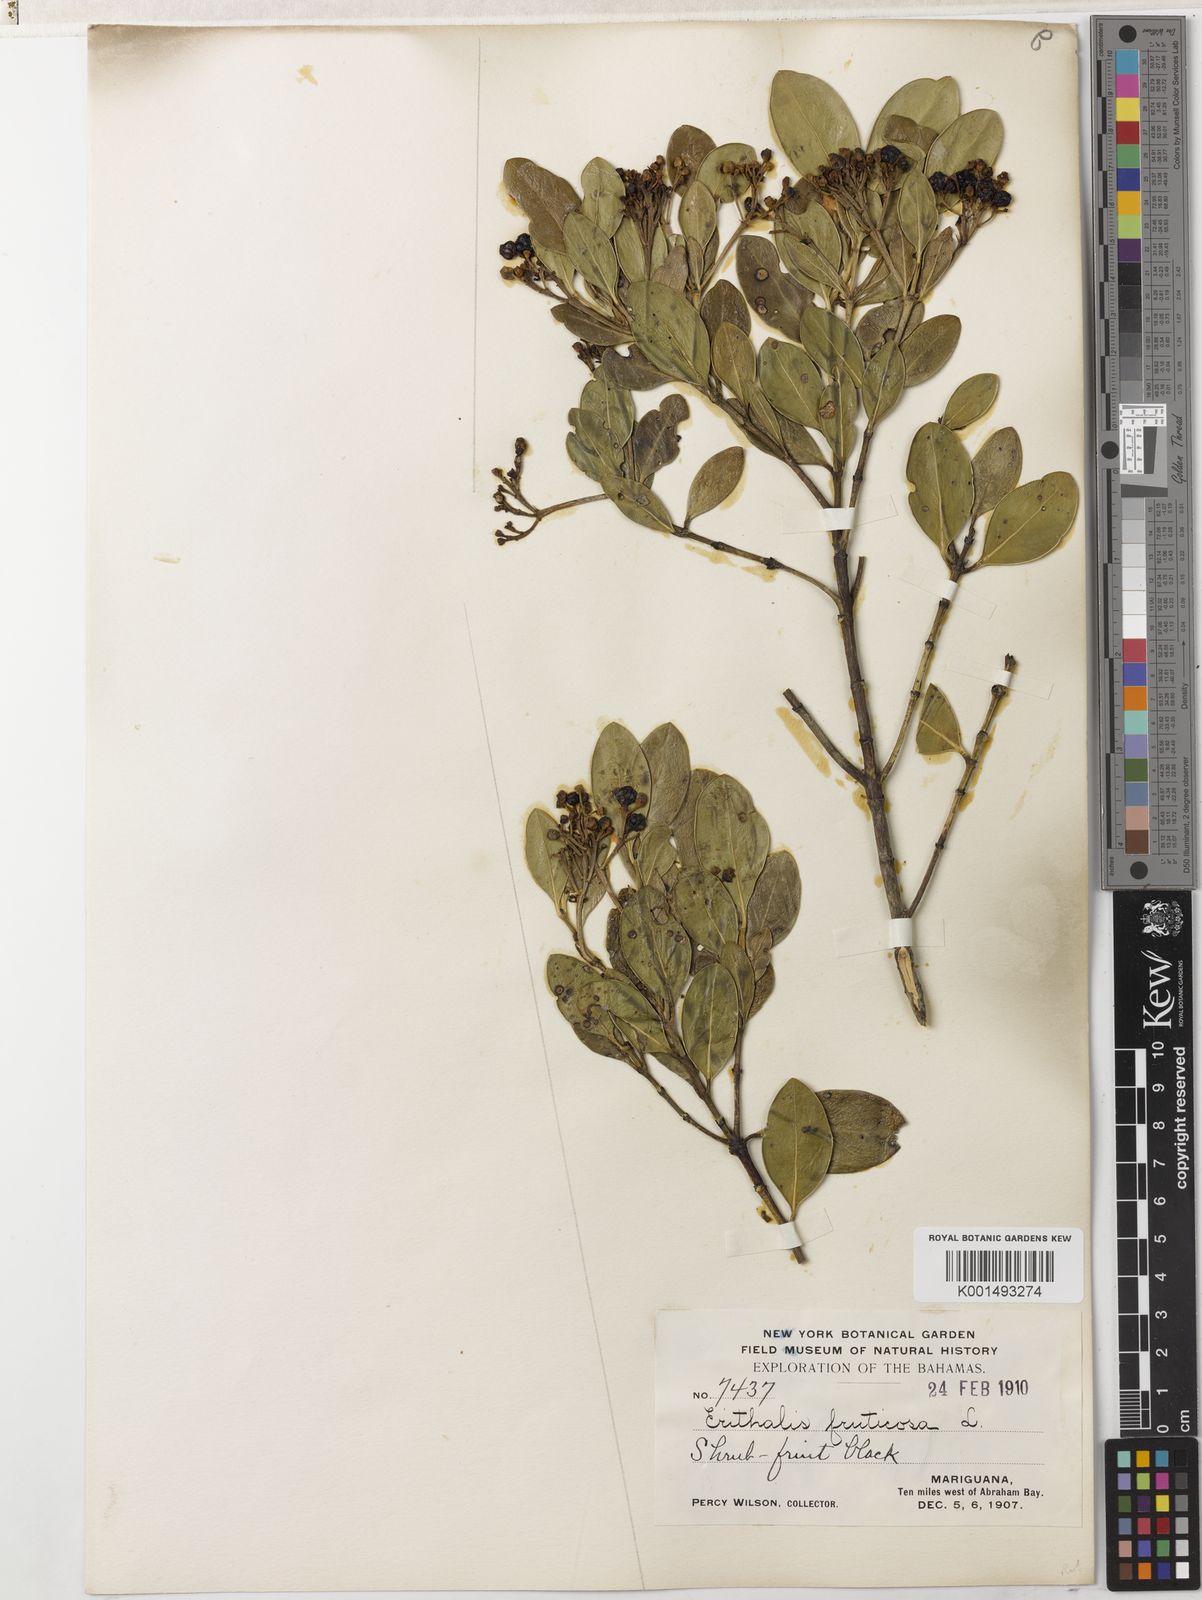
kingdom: Plantae
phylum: Tracheophyta
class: Magnoliopsida
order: Gentianales
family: Rubiaceae
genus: Erithalis
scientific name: Erithalis fruticosa
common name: Candlewood
